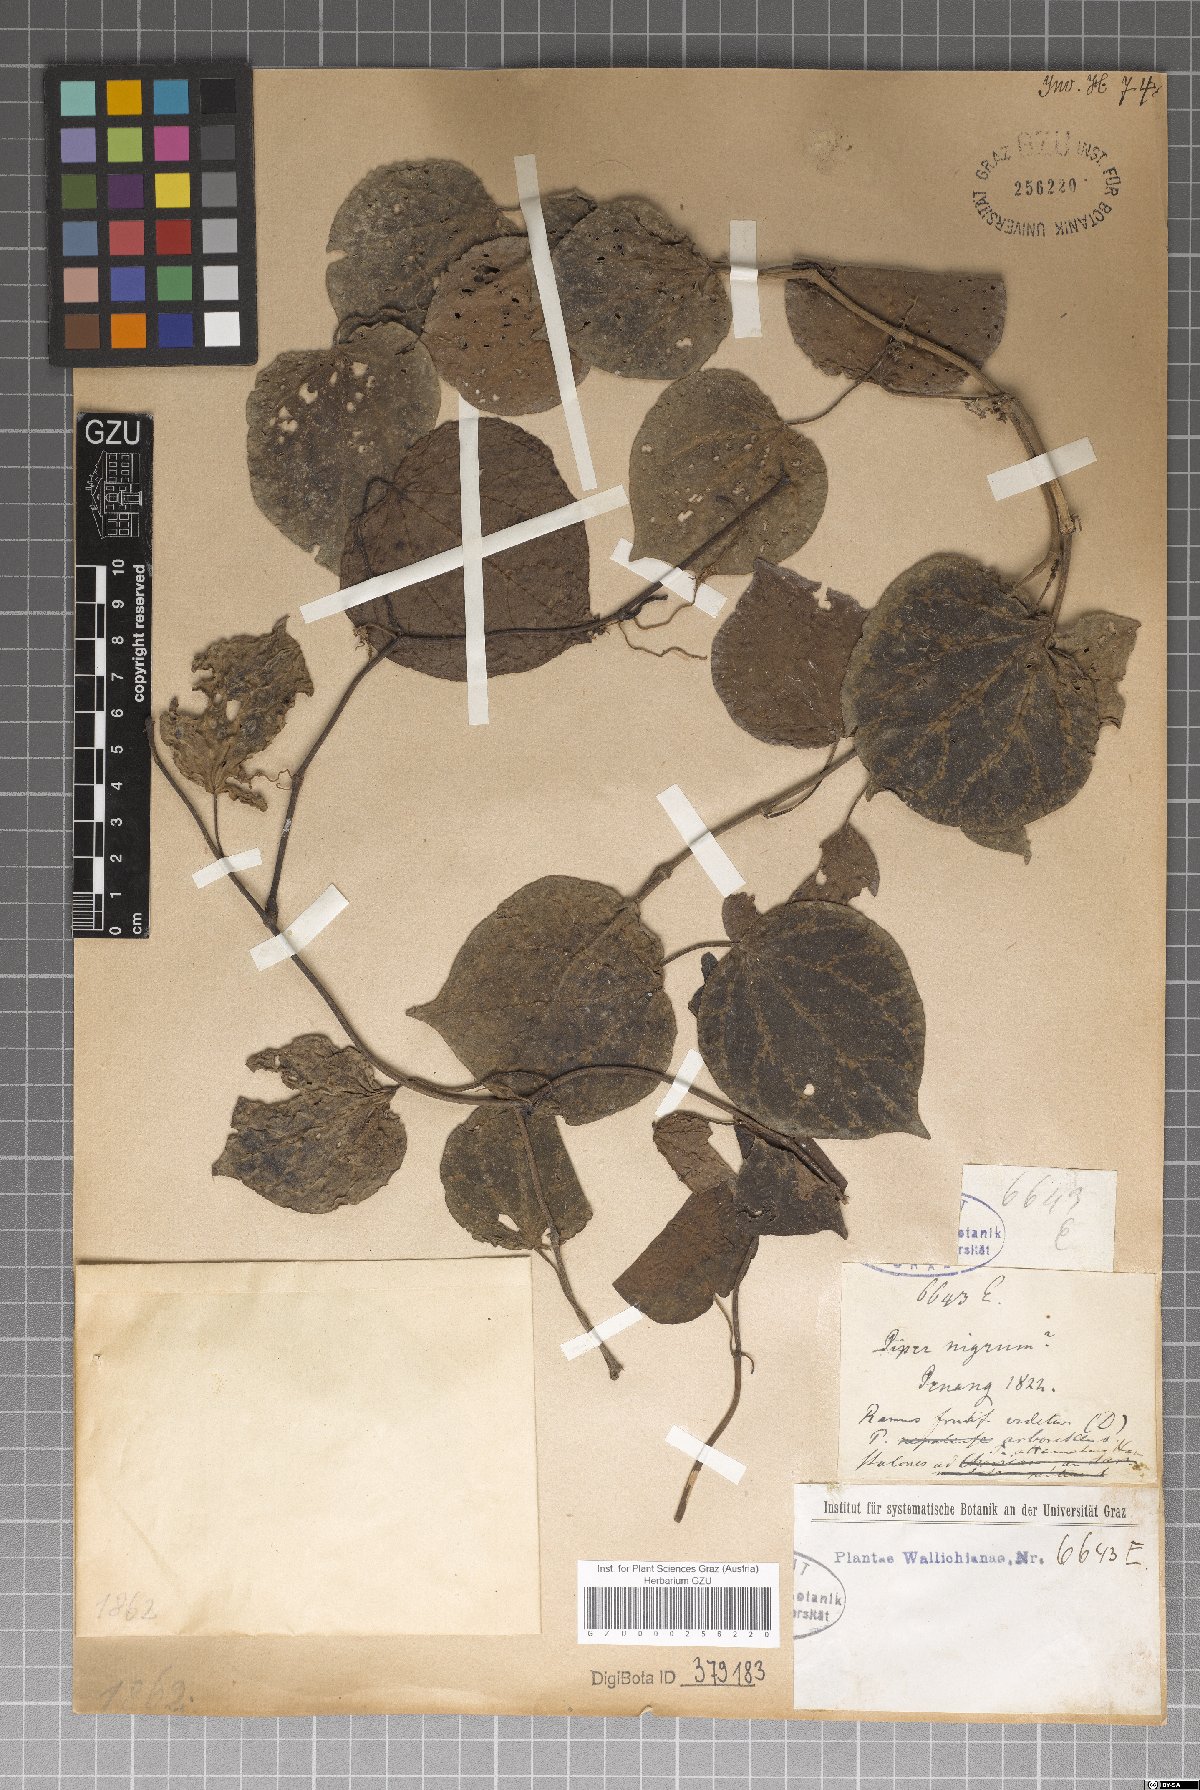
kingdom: Plantae
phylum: Tracheophyta
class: Magnoliopsida
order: Piperales
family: Piperaceae
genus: Piper
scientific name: Piper nigrum
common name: Black pepper
